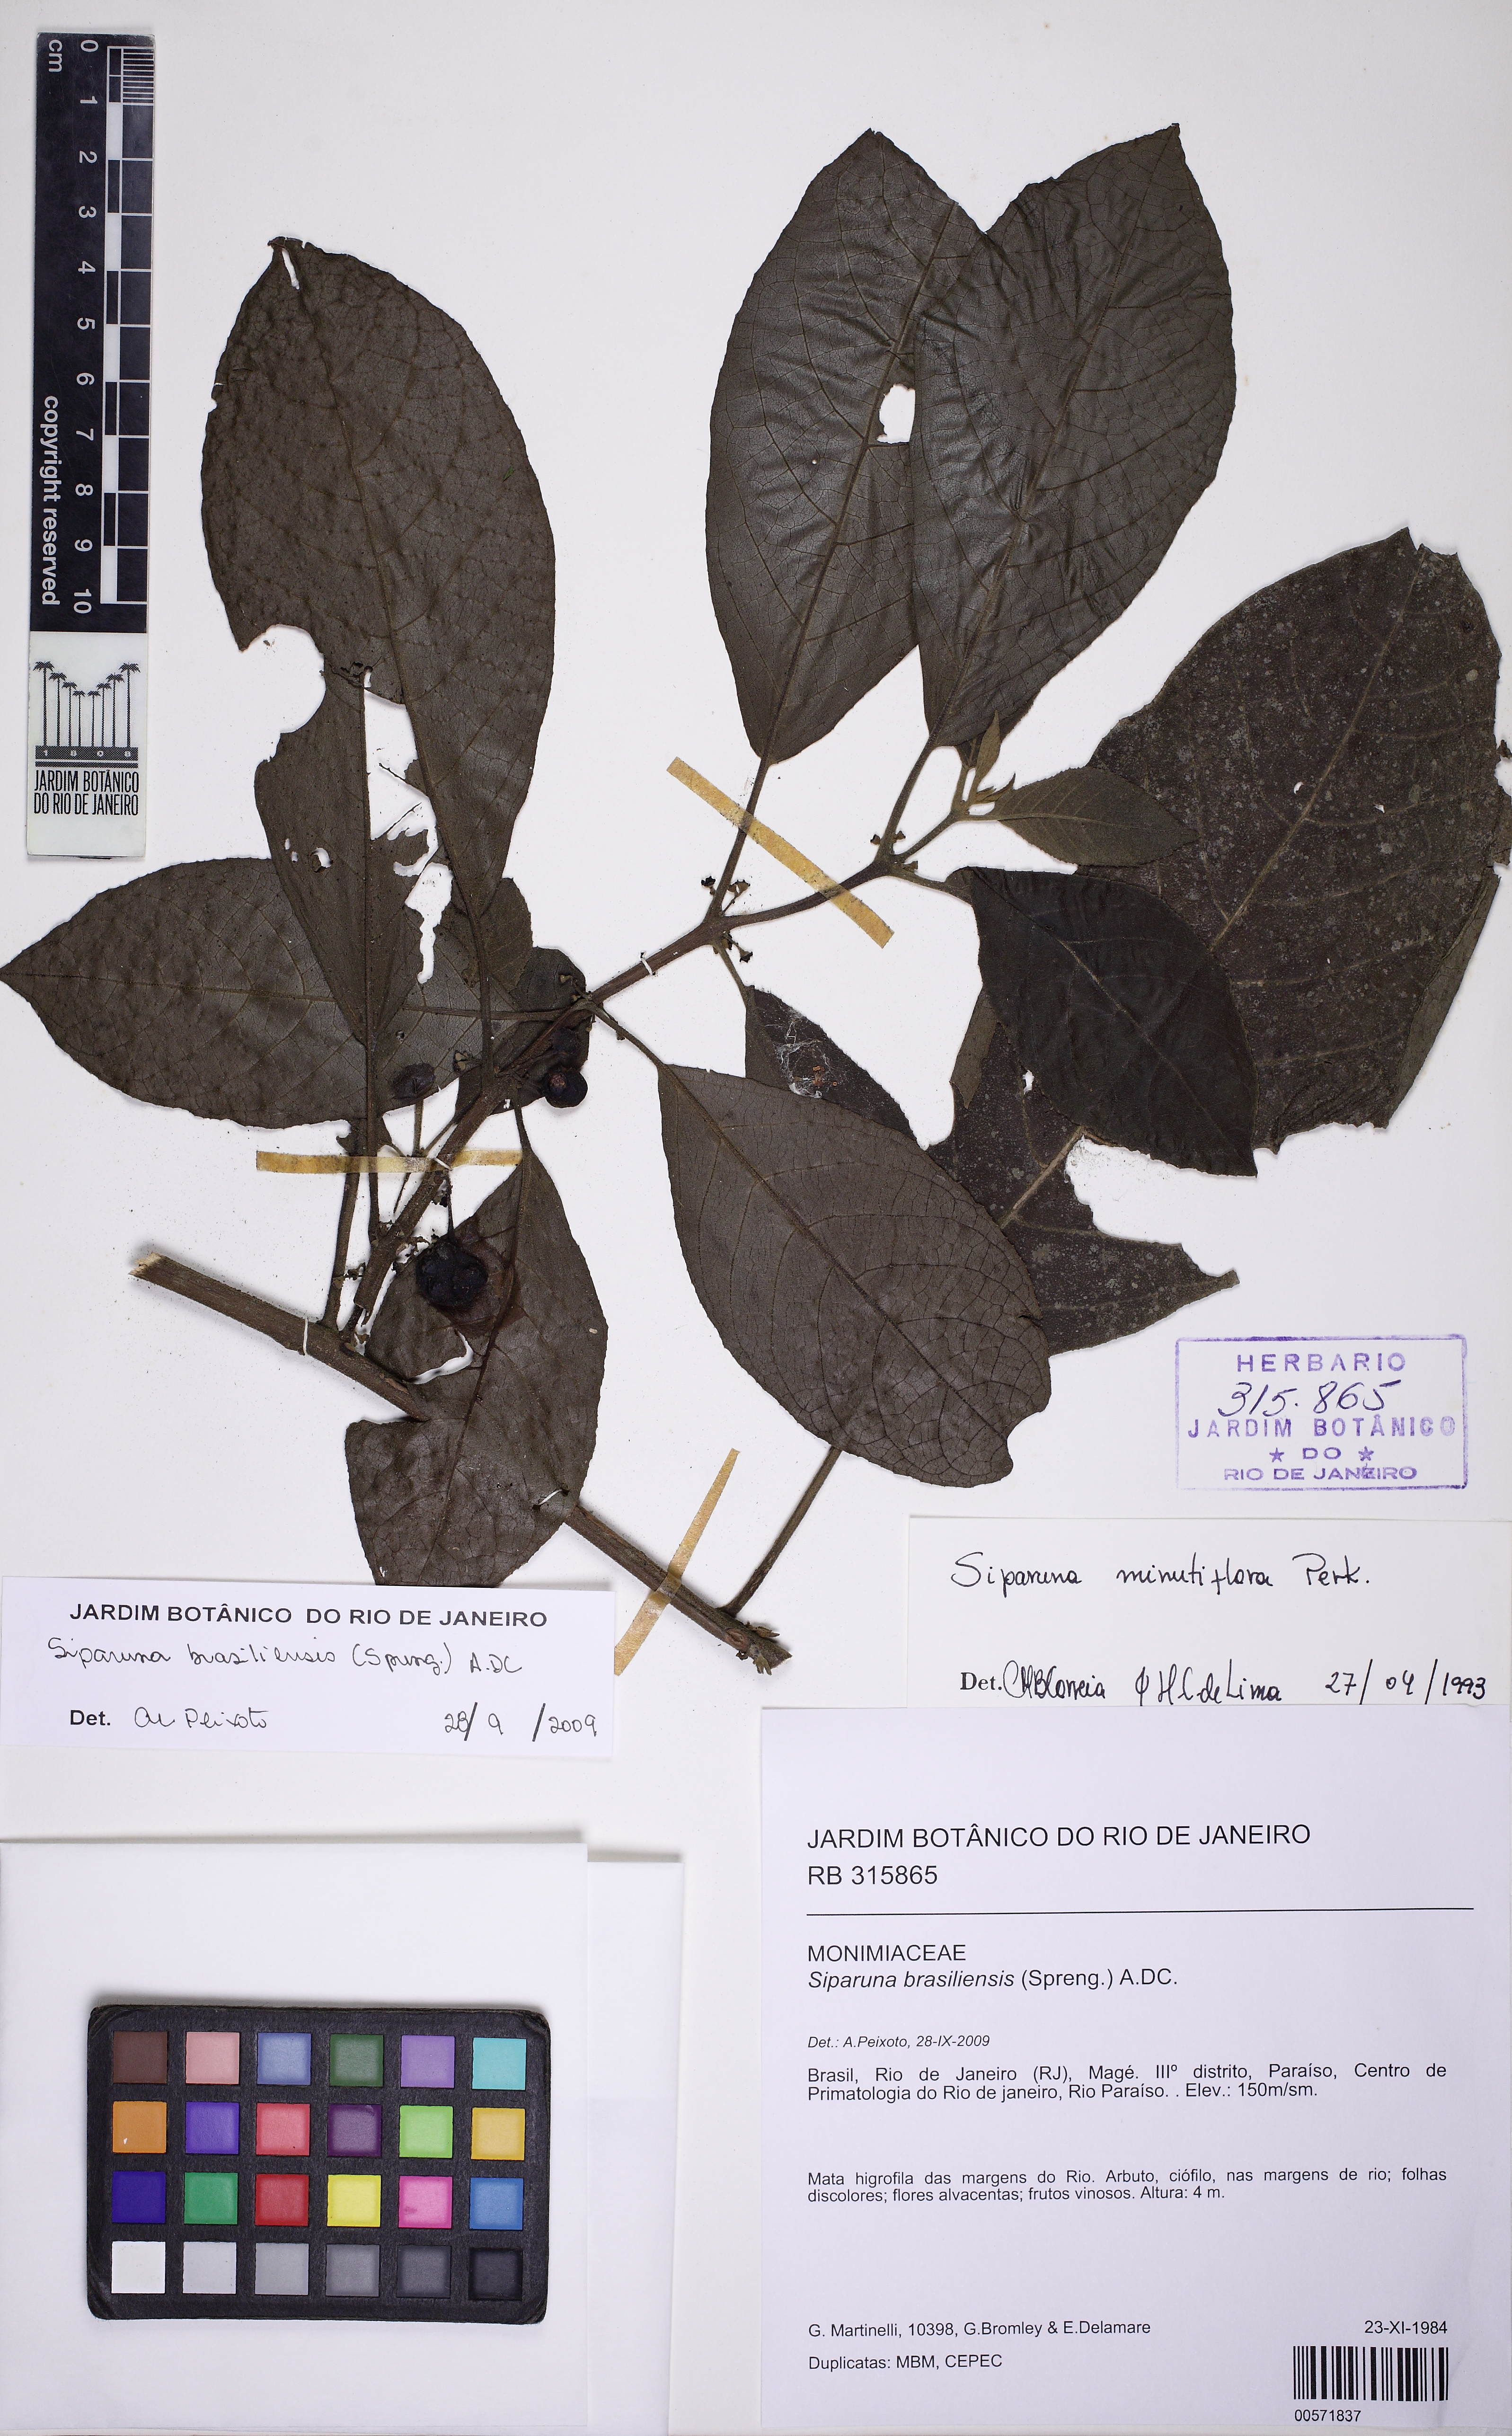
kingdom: Plantae
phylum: Tracheophyta
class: Magnoliopsida
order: Laurales
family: Siparunaceae
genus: Siparuna
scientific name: Siparuna brasiliensis
